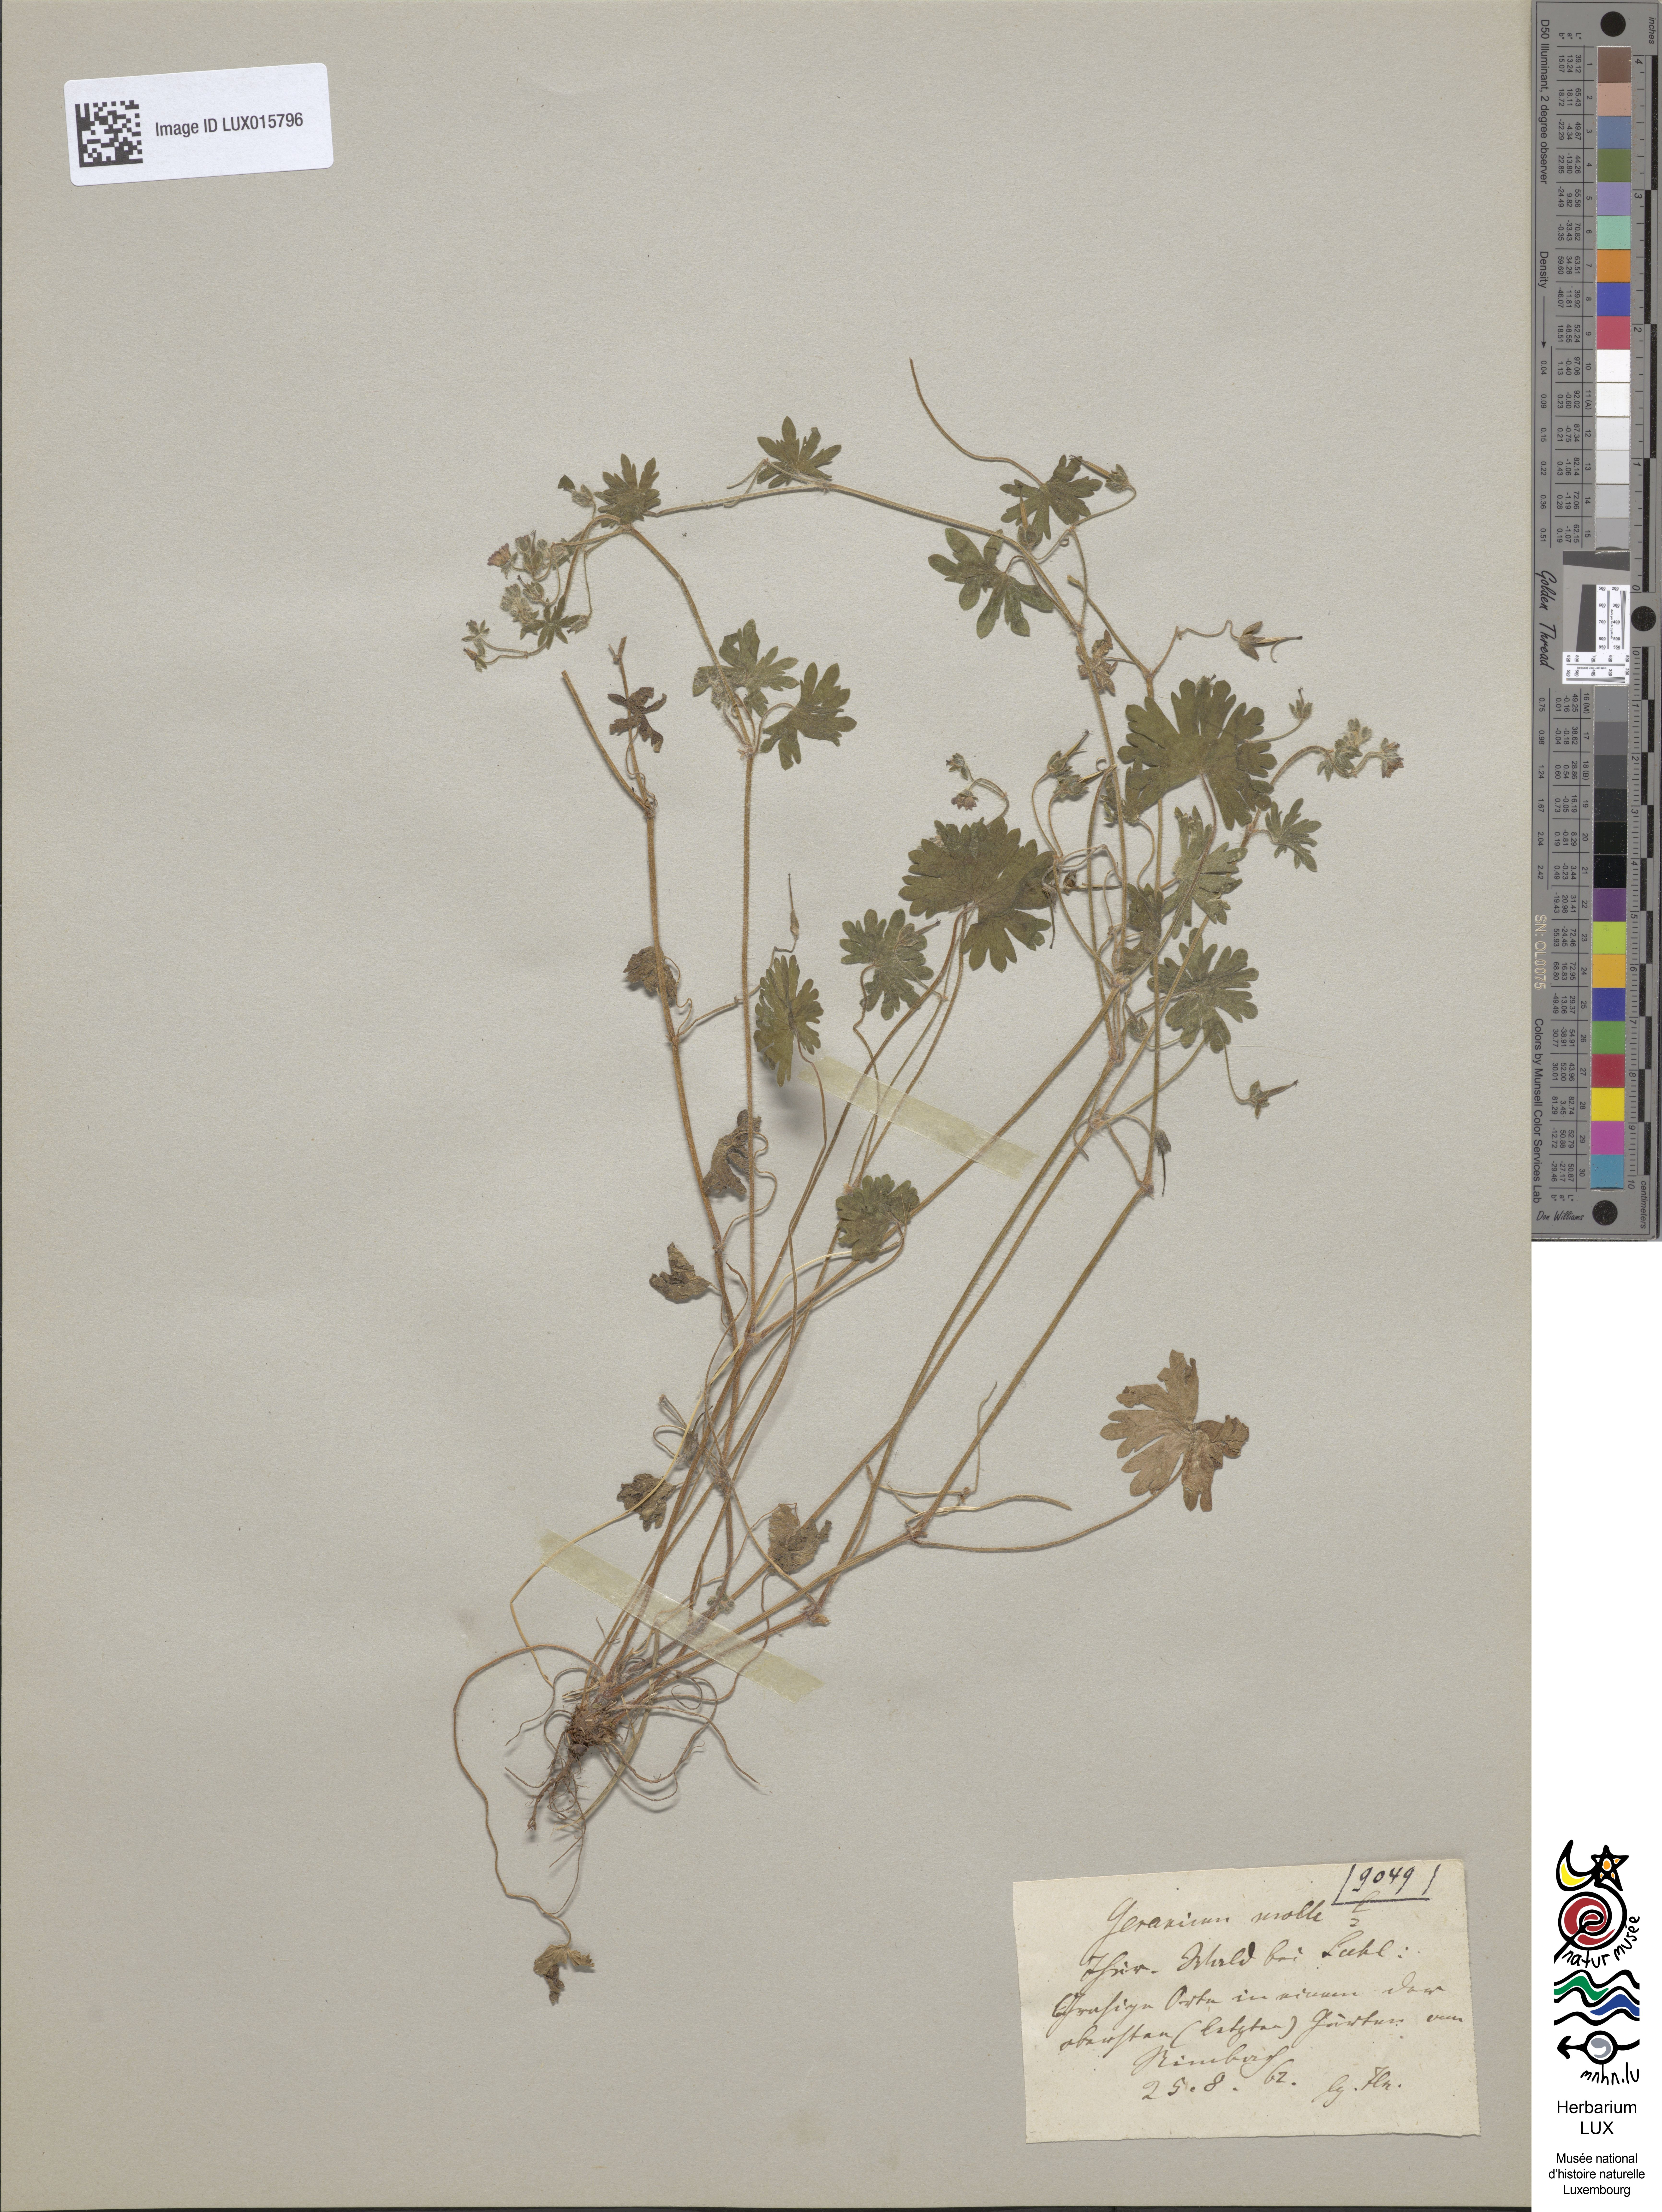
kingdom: Plantae
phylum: Tracheophyta
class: Magnoliopsida
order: Geraniales
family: Geraniaceae
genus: Geranium
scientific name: Geranium molle
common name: Dove's-foot crane's-bill
